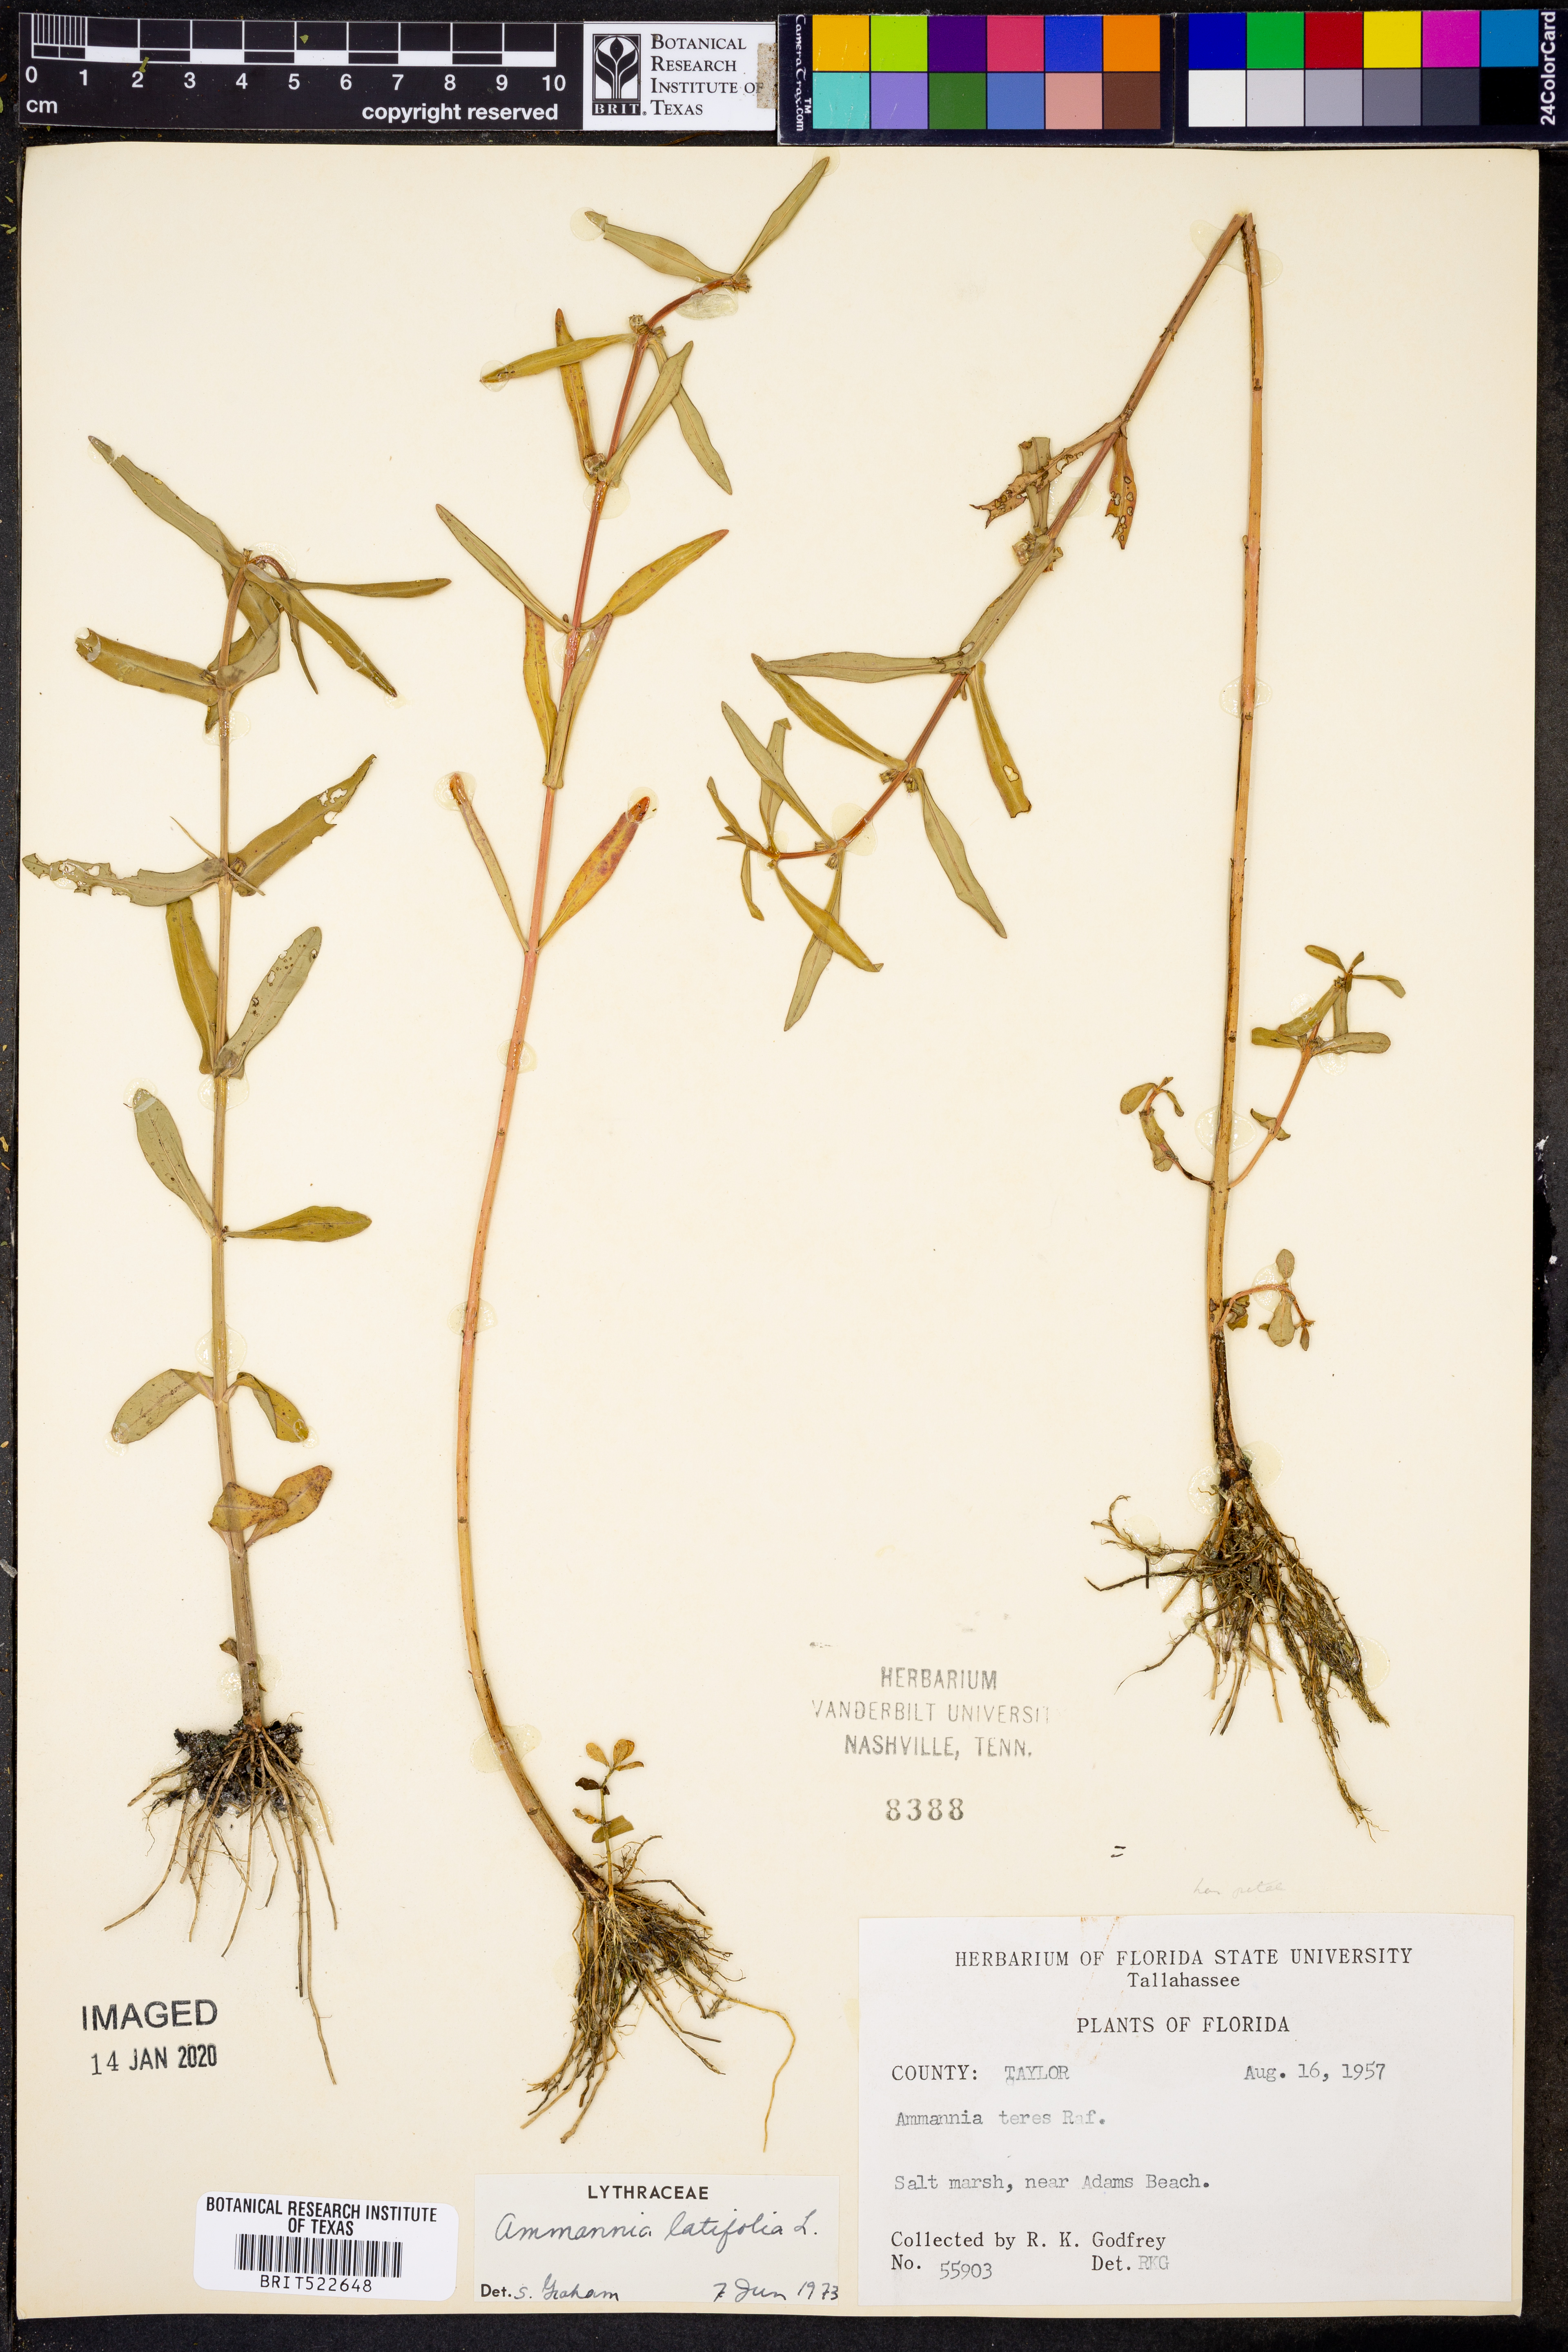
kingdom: Plantae
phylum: Tracheophyta
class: Magnoliopsida
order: Myrtales
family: Lythraceae
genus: Ammannia
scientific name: Ammannia coccinea
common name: Valley redstem
